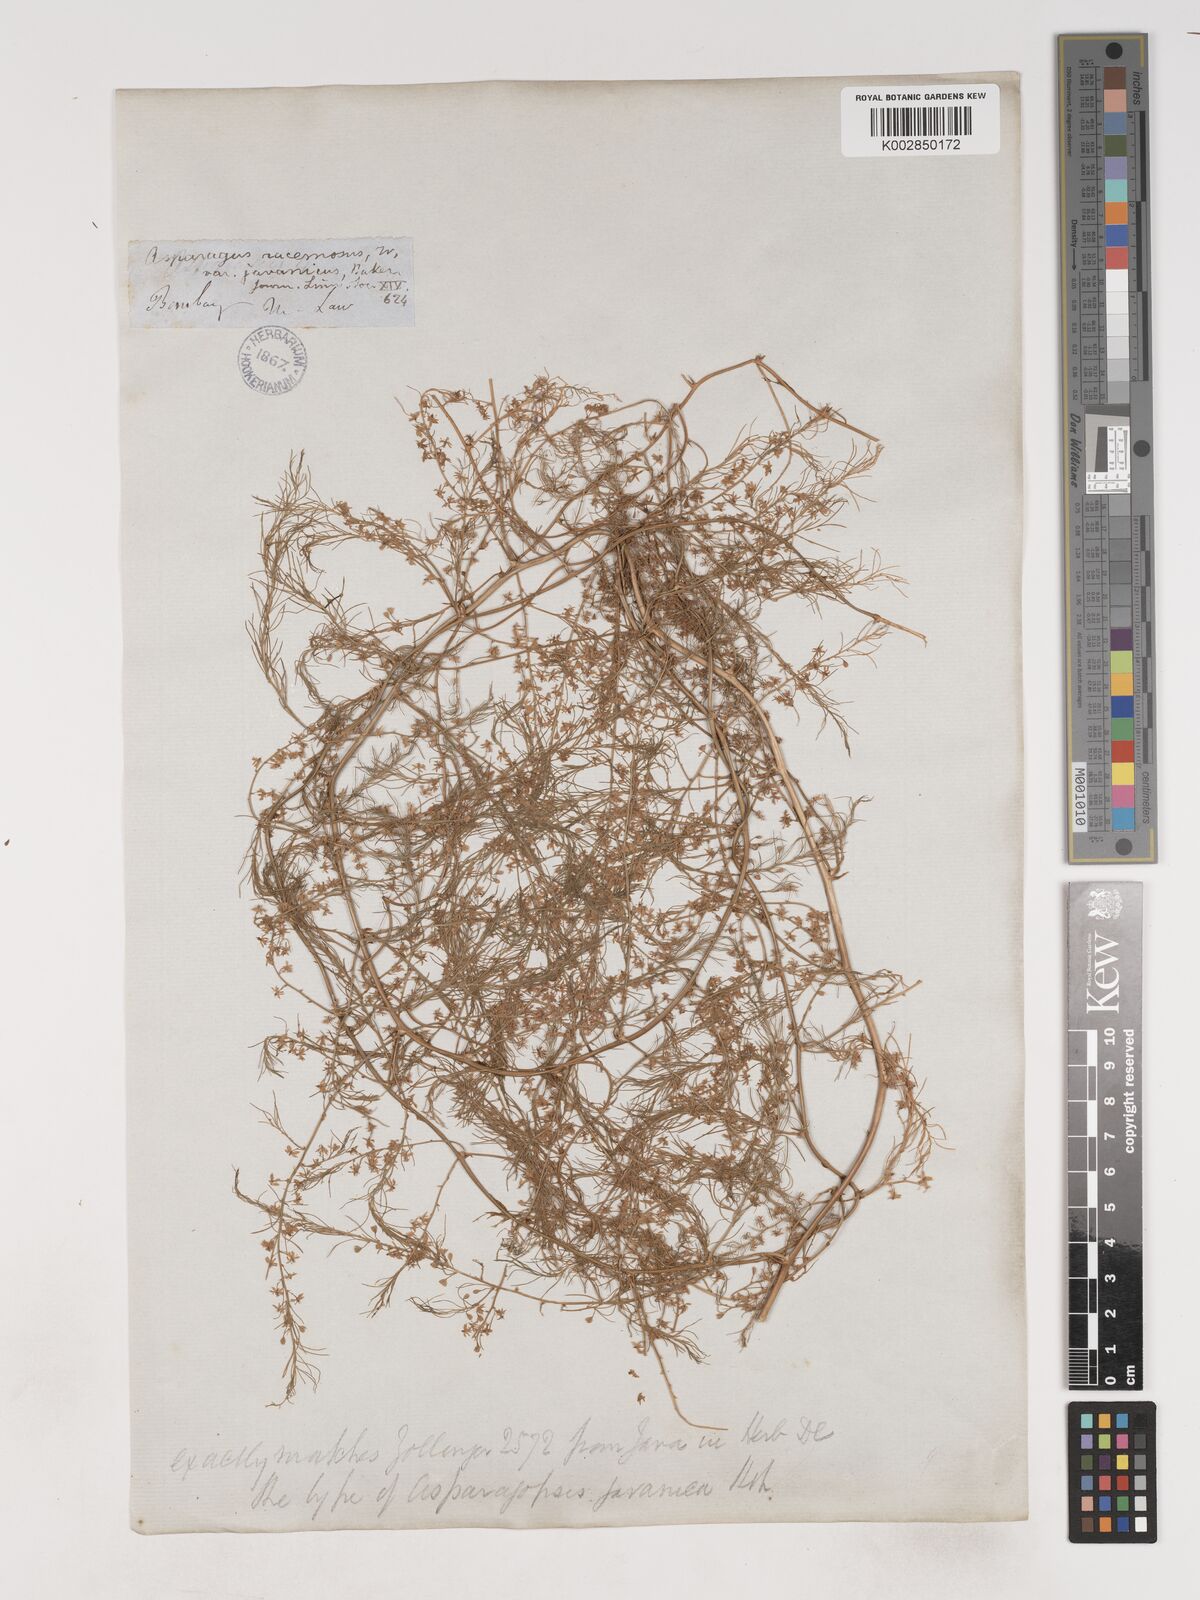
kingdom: Plantae
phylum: Tracheophyta
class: Liliopsida
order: Asparagales
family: Asparagaceae
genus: Asparagus
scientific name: Asparagus racemosus
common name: Asparagus-fern
